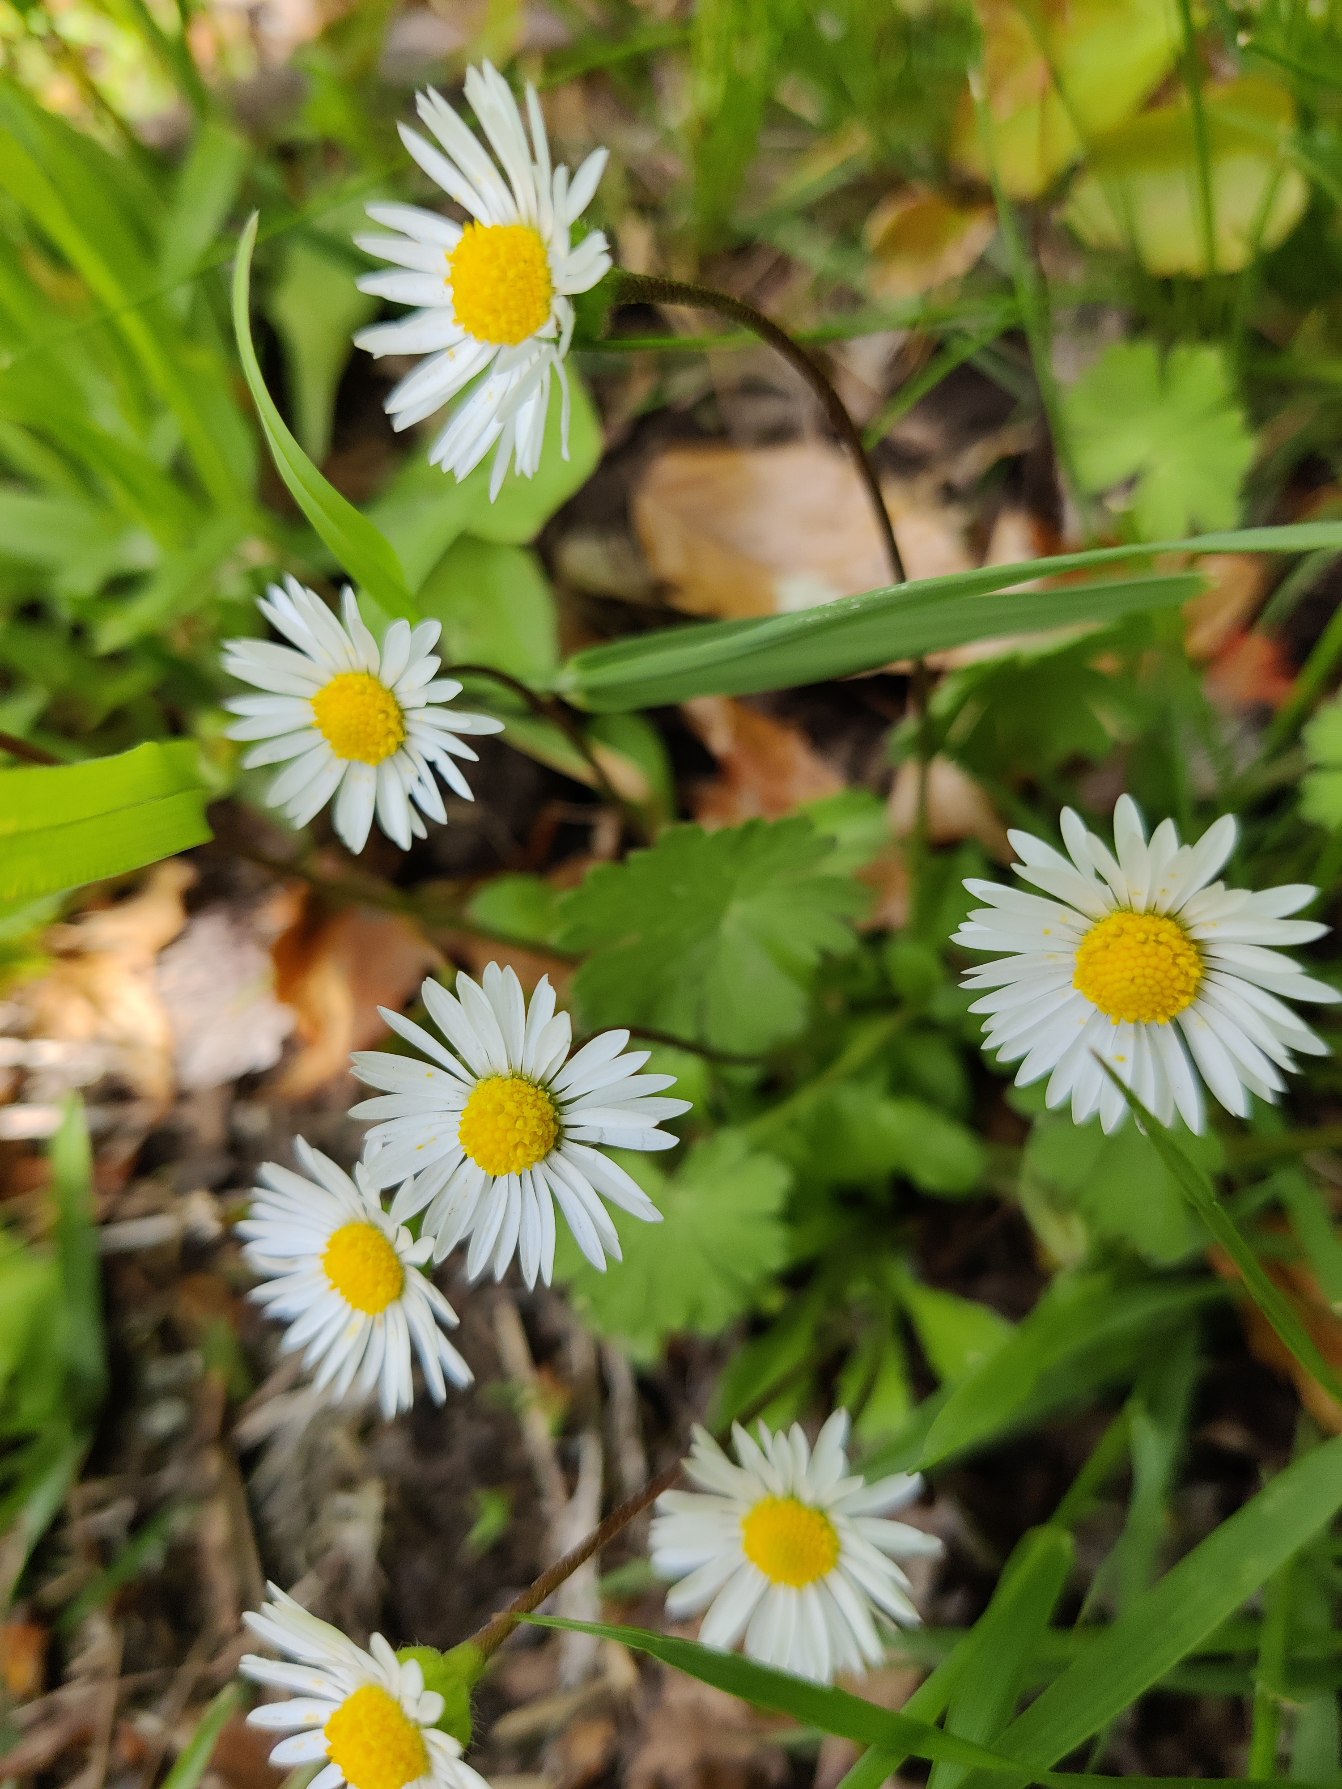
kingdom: Plantae
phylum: Tracheophyta
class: Magnoliopsida
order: Asterales
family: Asteraceae
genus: Bellis
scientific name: Bellis perennis
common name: Tusindfryd
